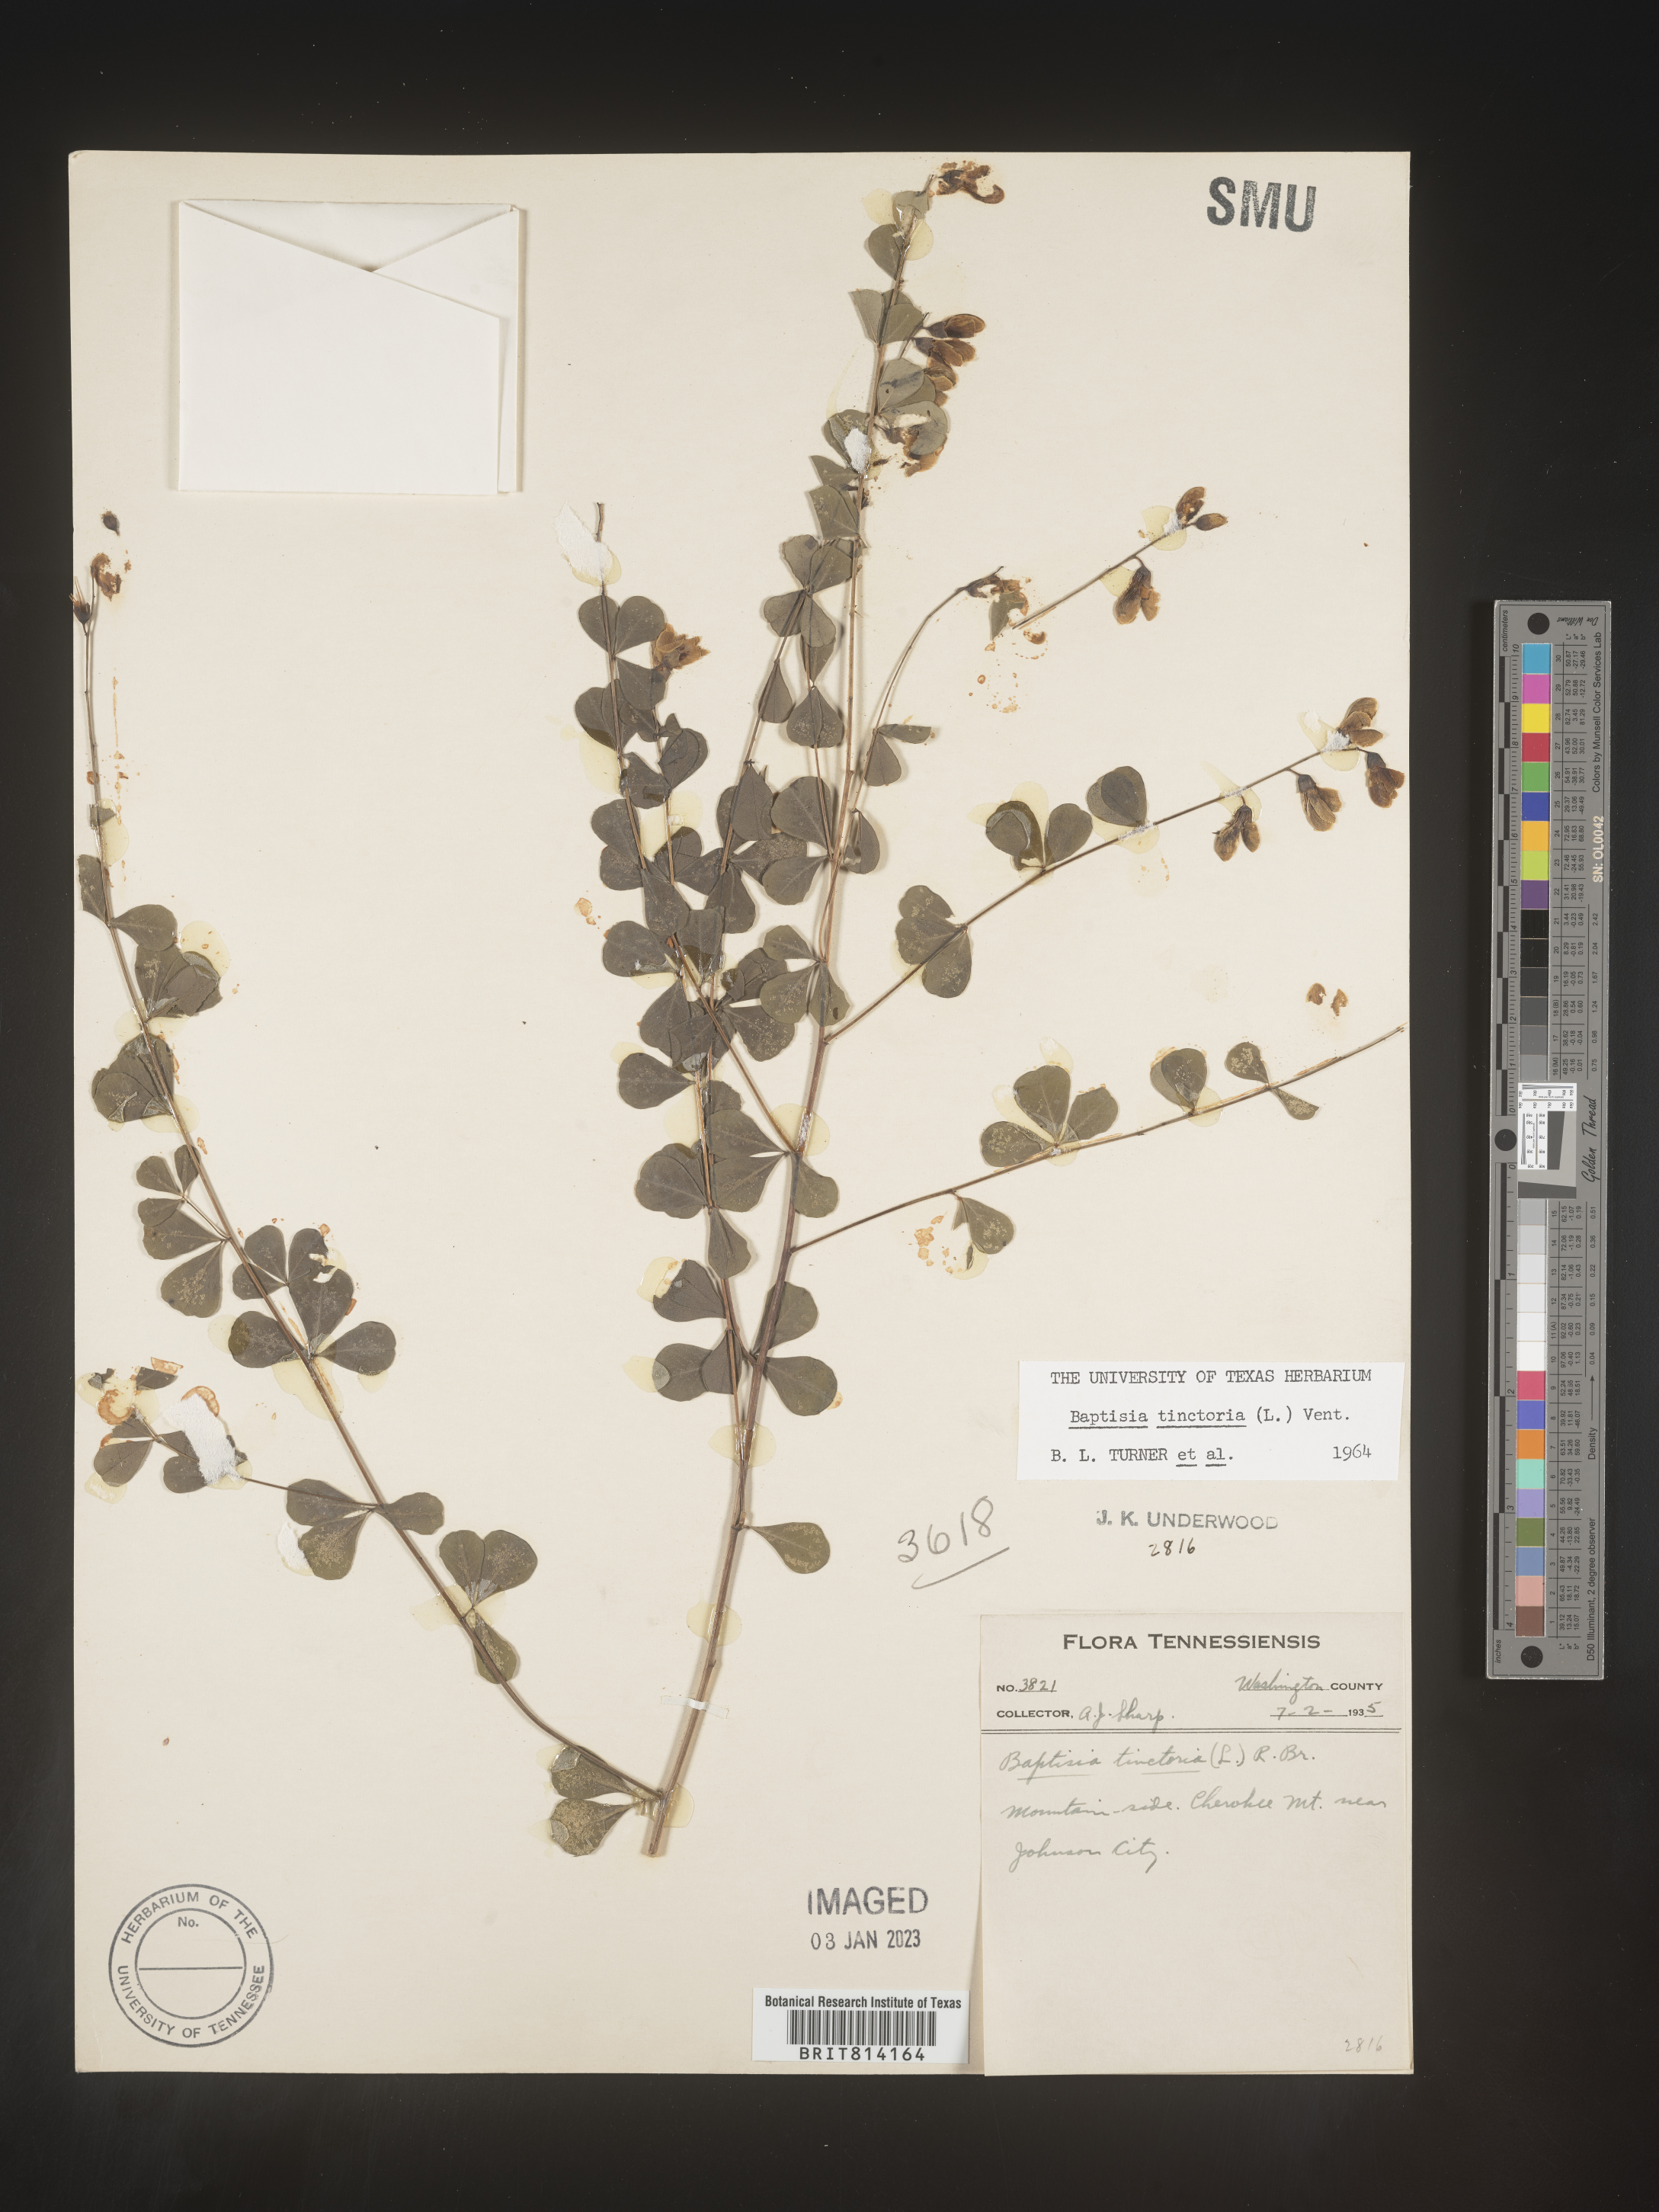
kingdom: Plantae
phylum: Tracheophyta
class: Magnoliopsida
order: Fabales
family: Fabaceae
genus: Baptisia
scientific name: Baptisia tinctoria
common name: Wild indigo
